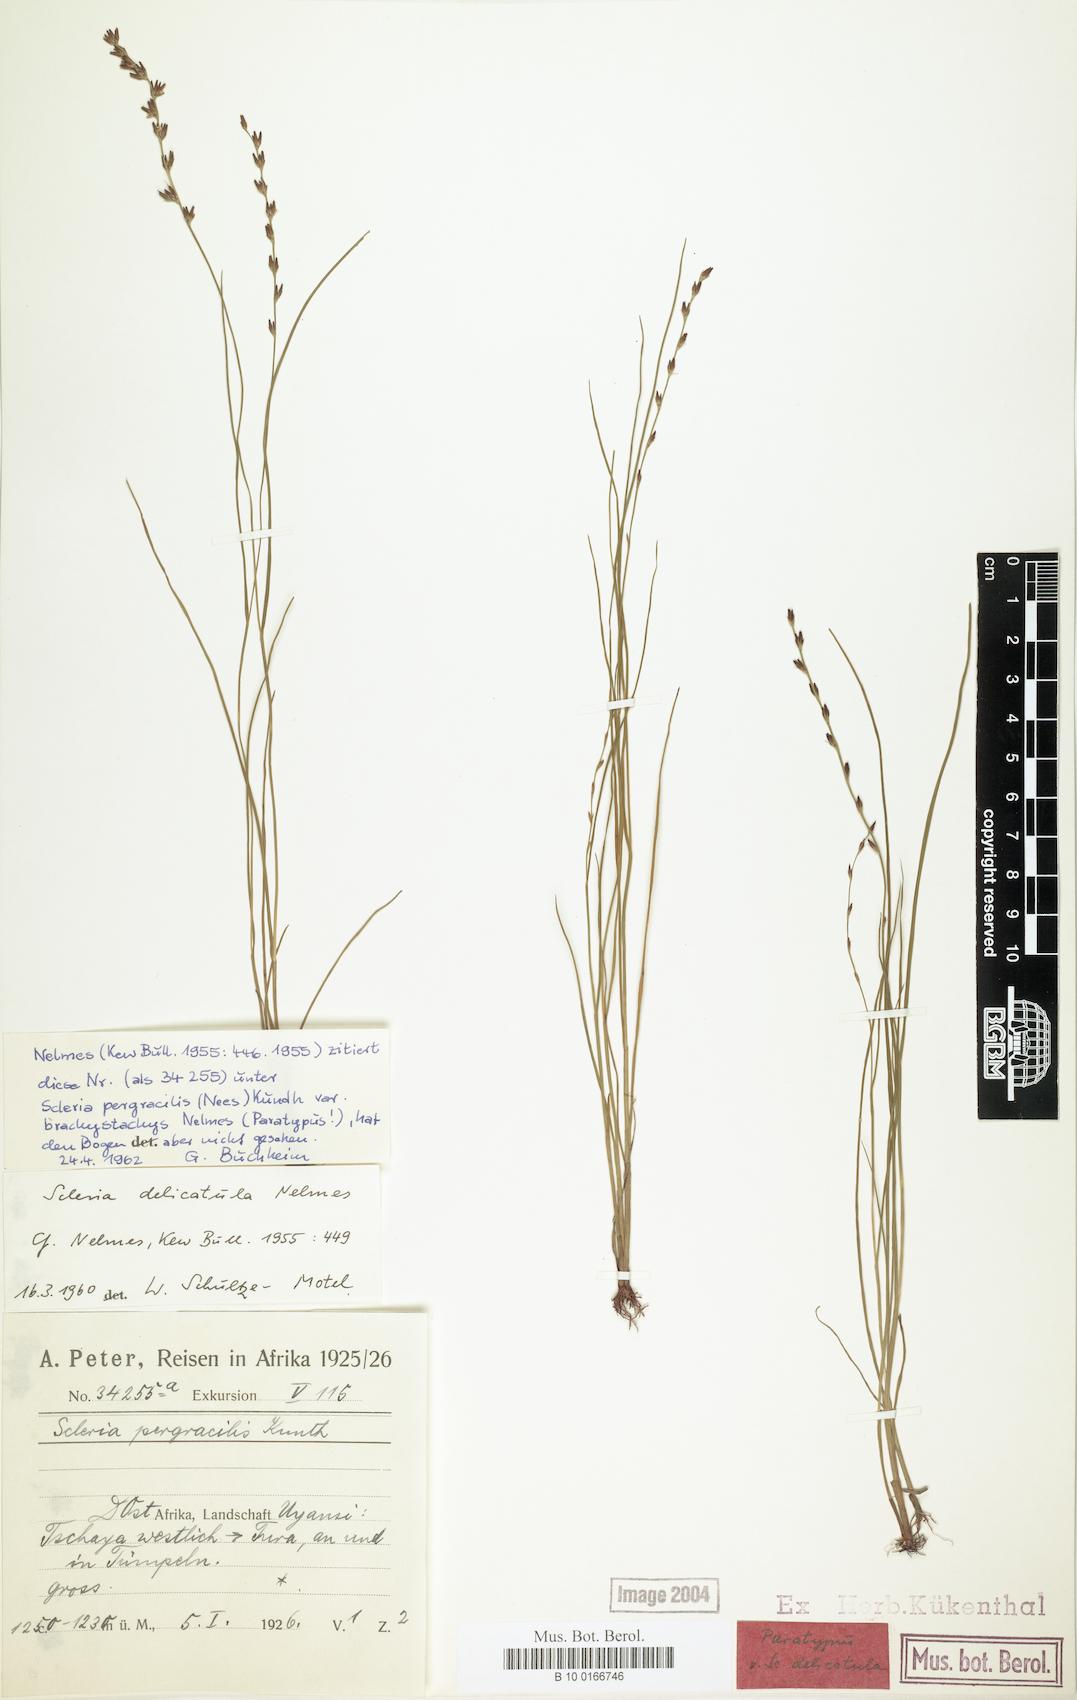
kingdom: Plantae
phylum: Tracheophyta
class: Liliopsida
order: Poales
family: Cyperaceae
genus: Scleria
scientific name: Scleria delicatula
